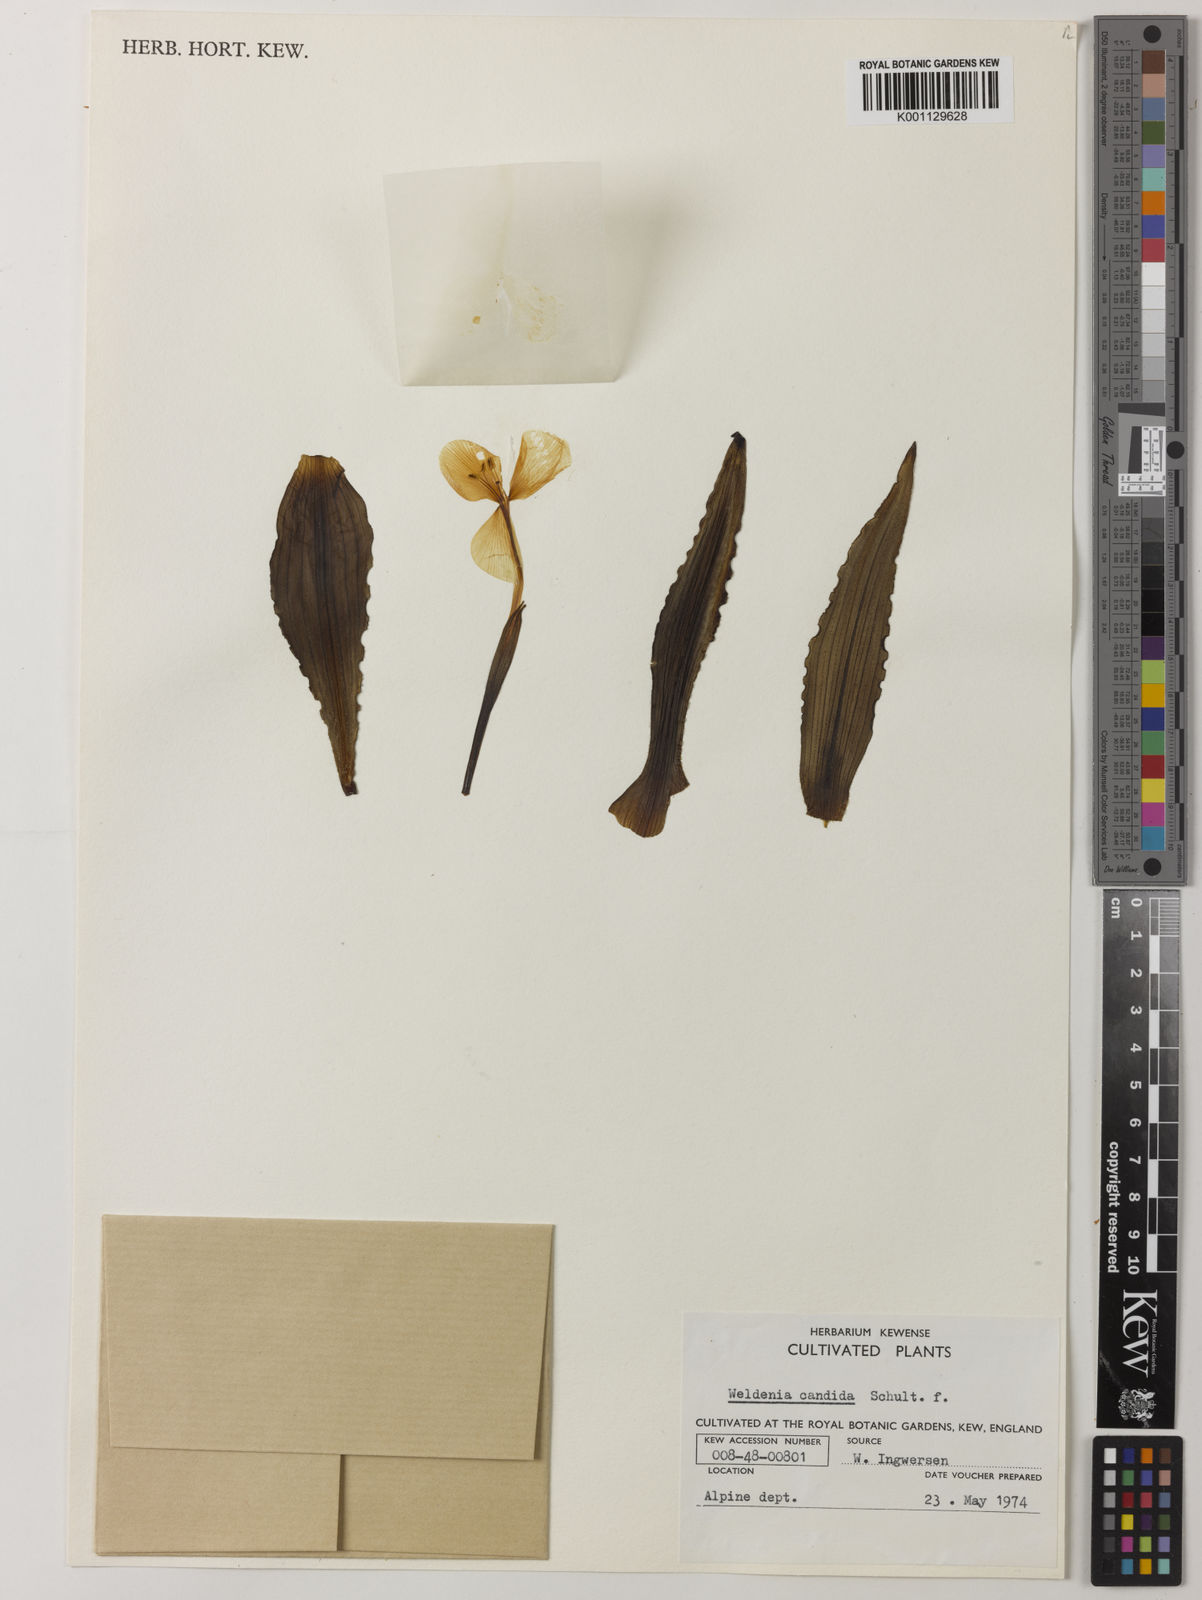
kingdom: Plantae
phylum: Tracheophyta
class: Liliopsida
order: Commelinales
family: Commelinaceae
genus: Weldenia
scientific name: Weldenia candida
